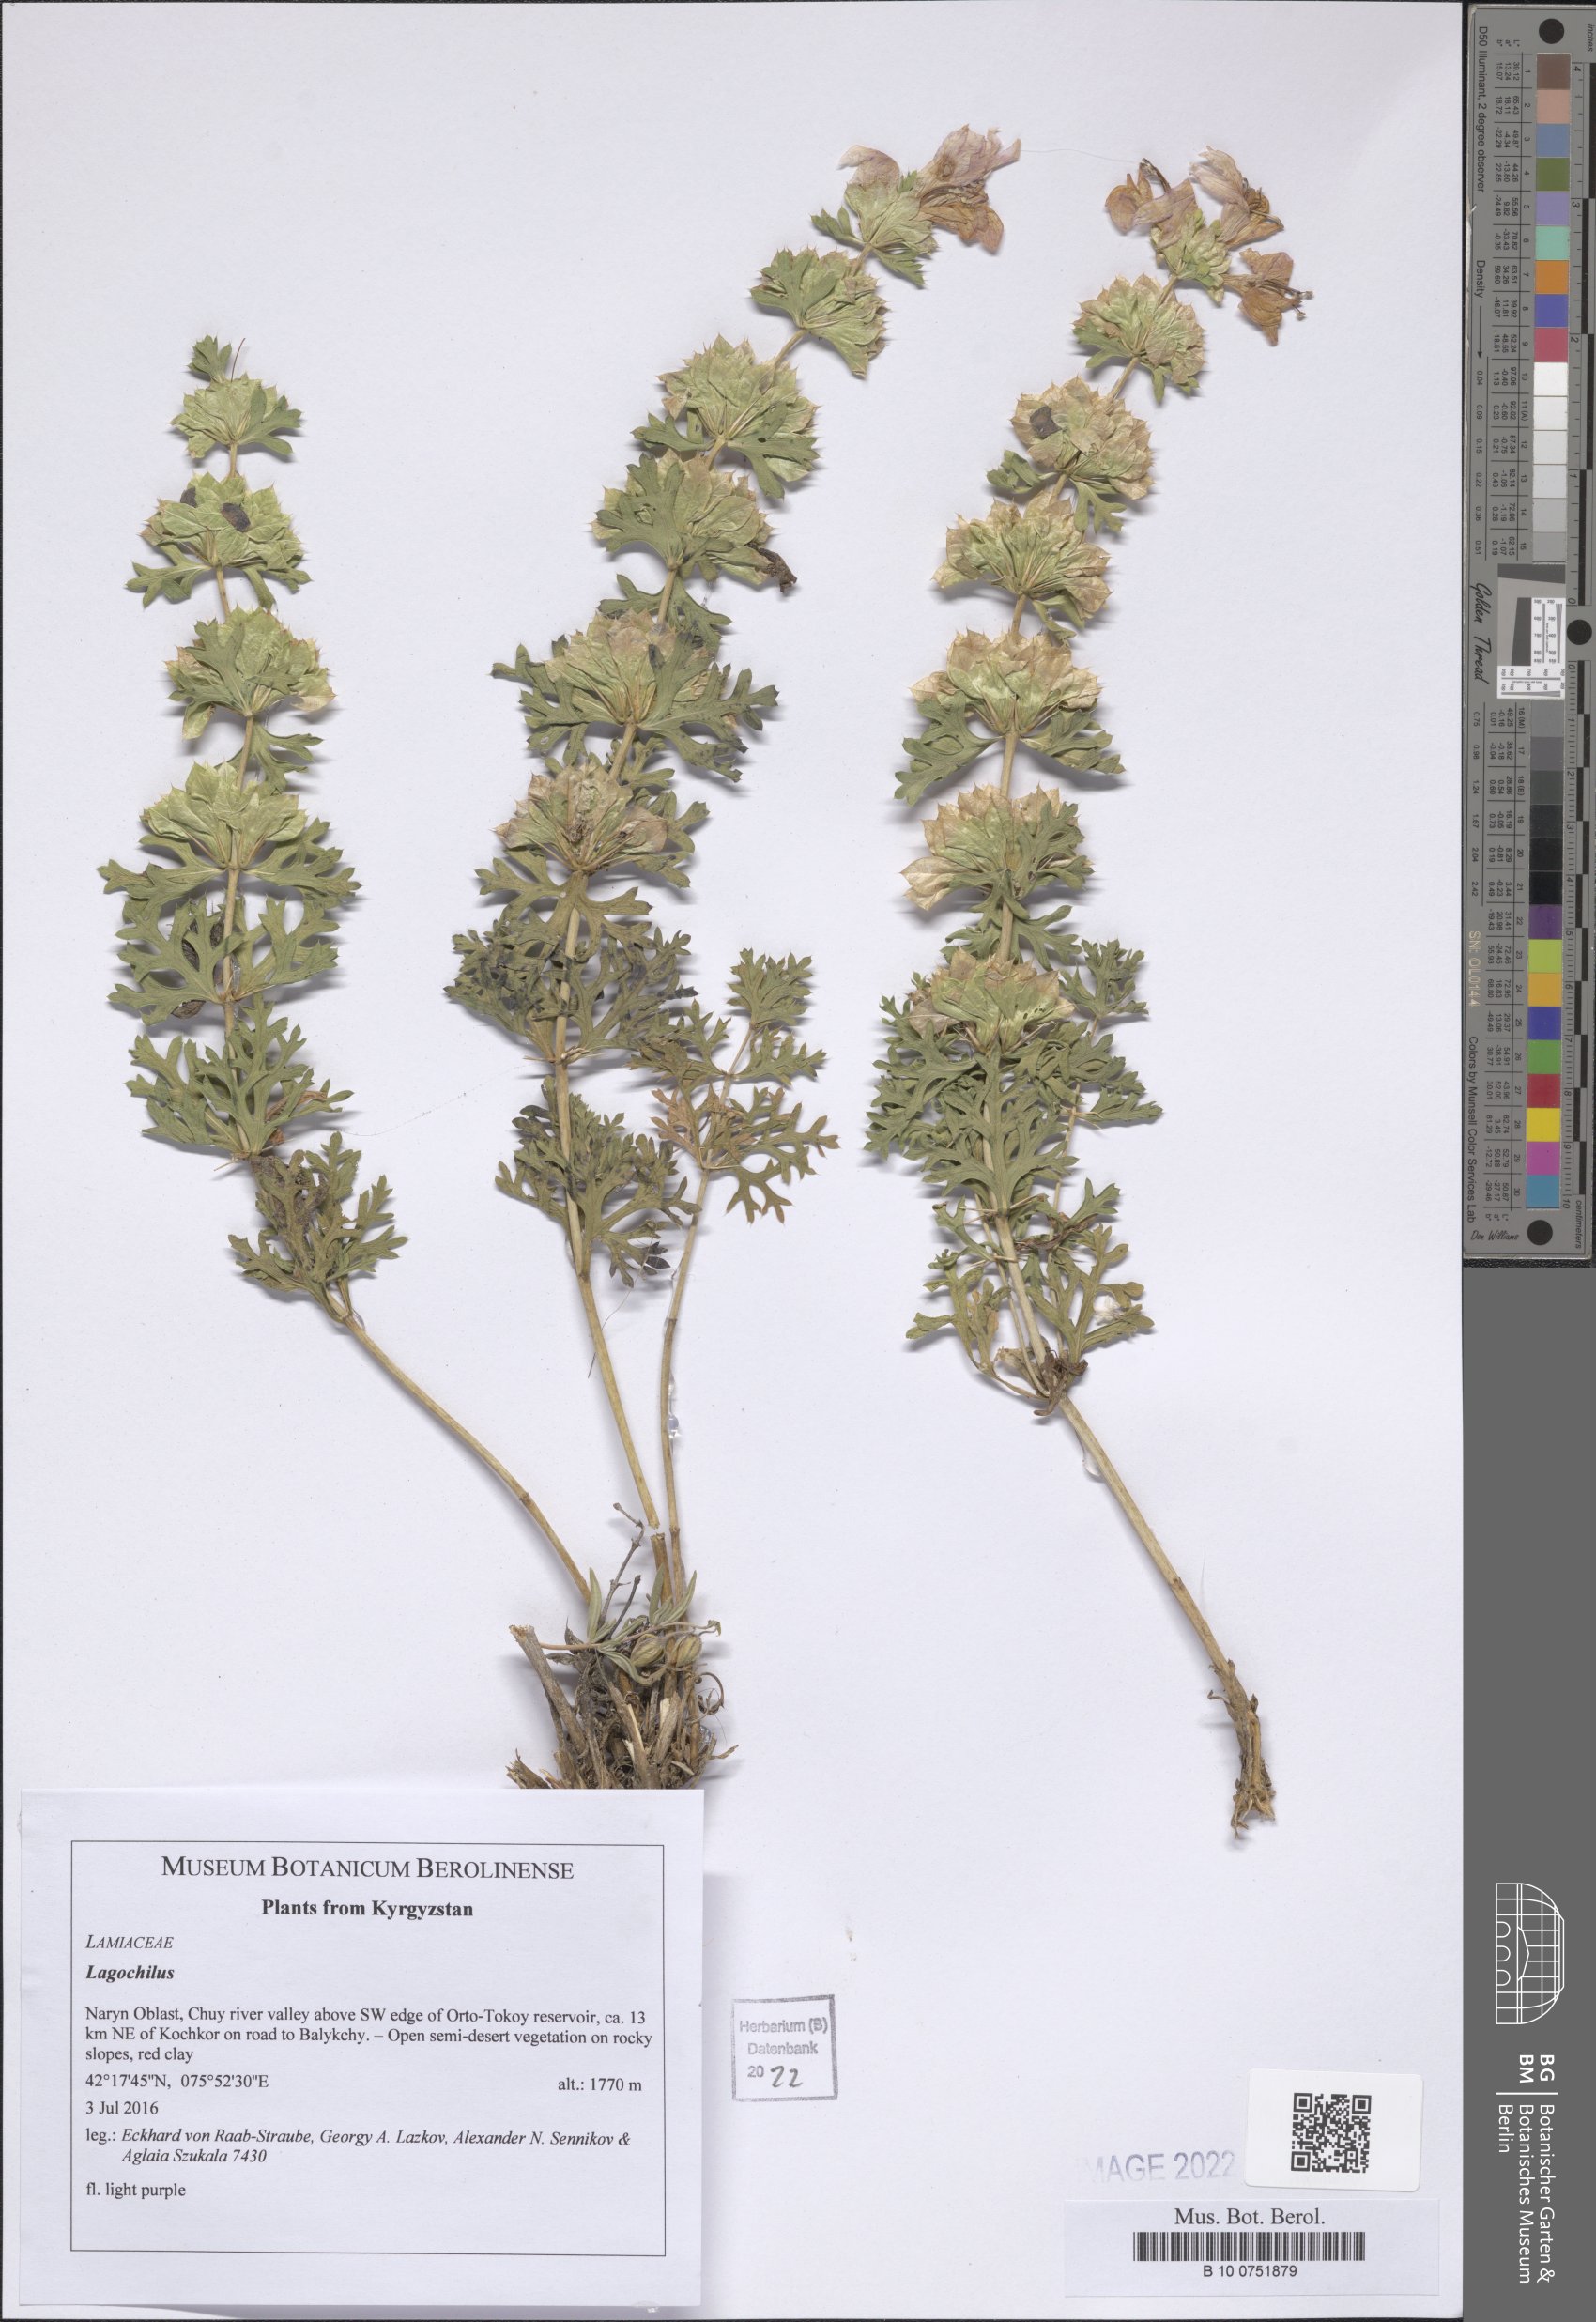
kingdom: Plantae
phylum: Tracheophyta
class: Magnoliopsida
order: Lamiales
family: Lamiaceae
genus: Lagochilus
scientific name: Lagochilus
